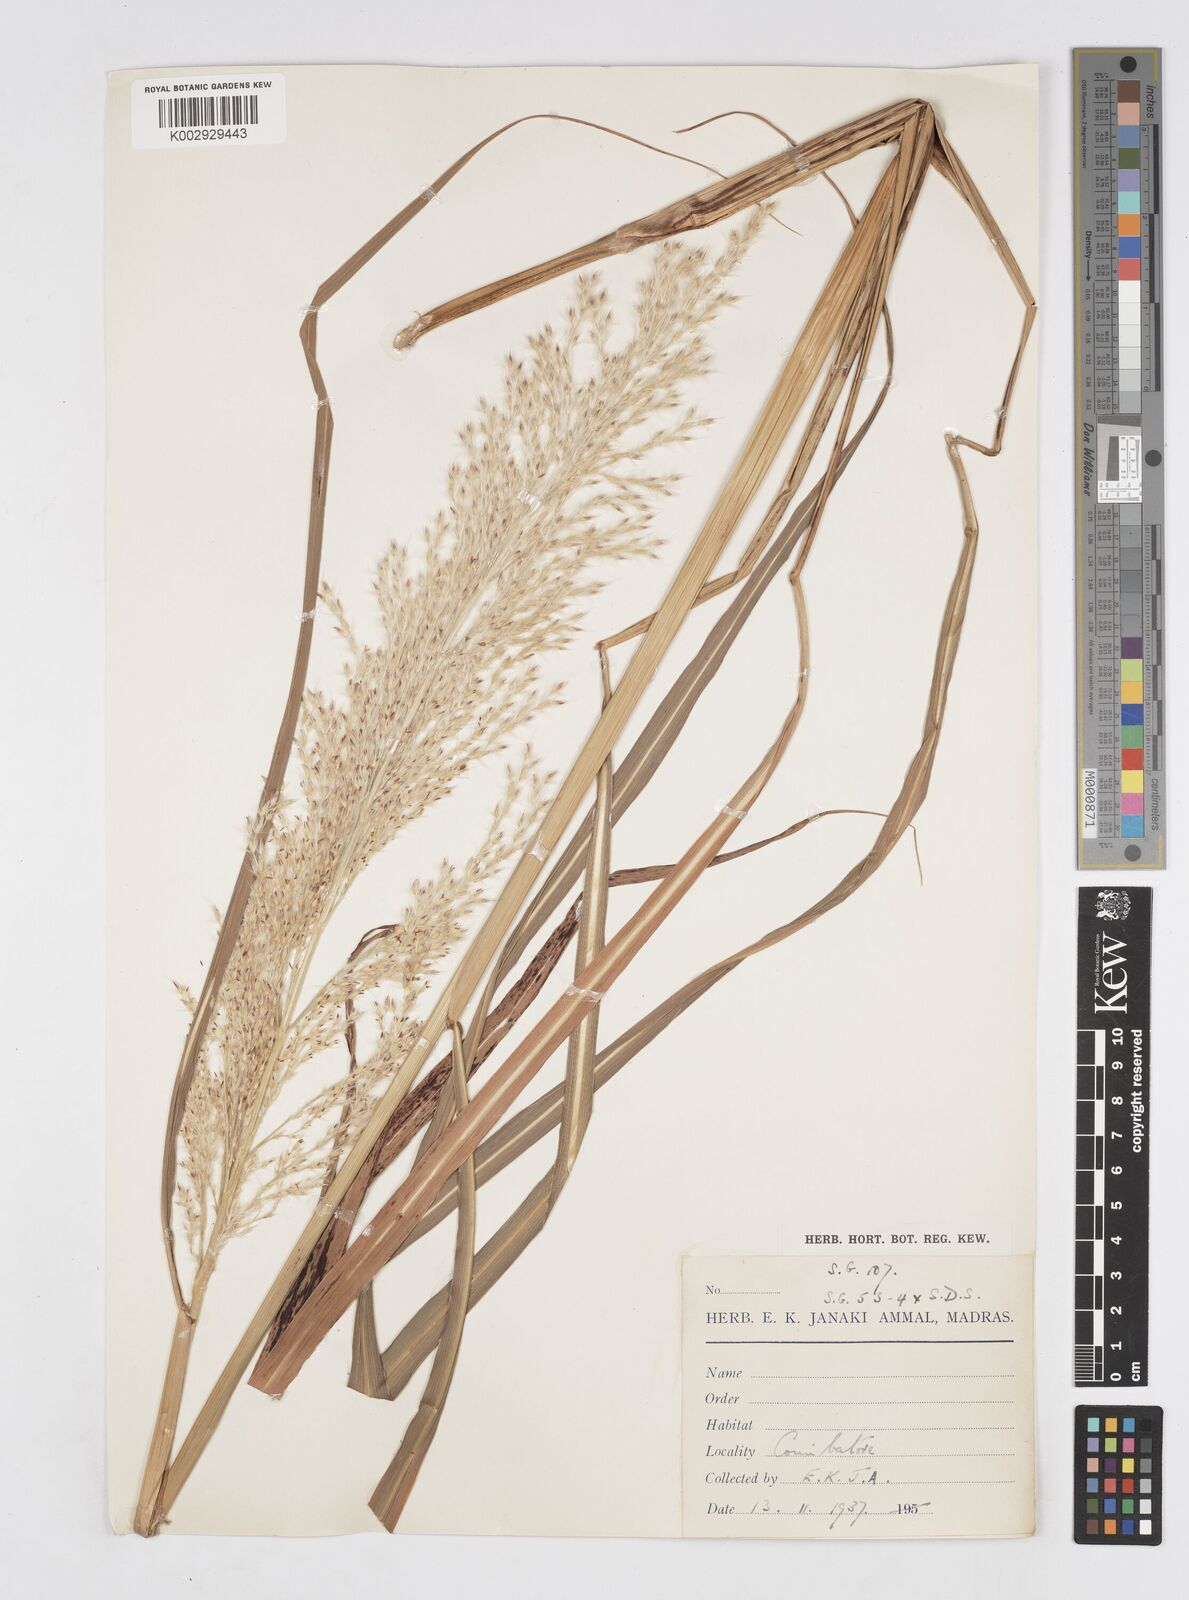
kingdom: Plantae
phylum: Tracheophyta
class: Liliopsida
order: Poales
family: Poaceae
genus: Saccharum
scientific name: Saccharum
